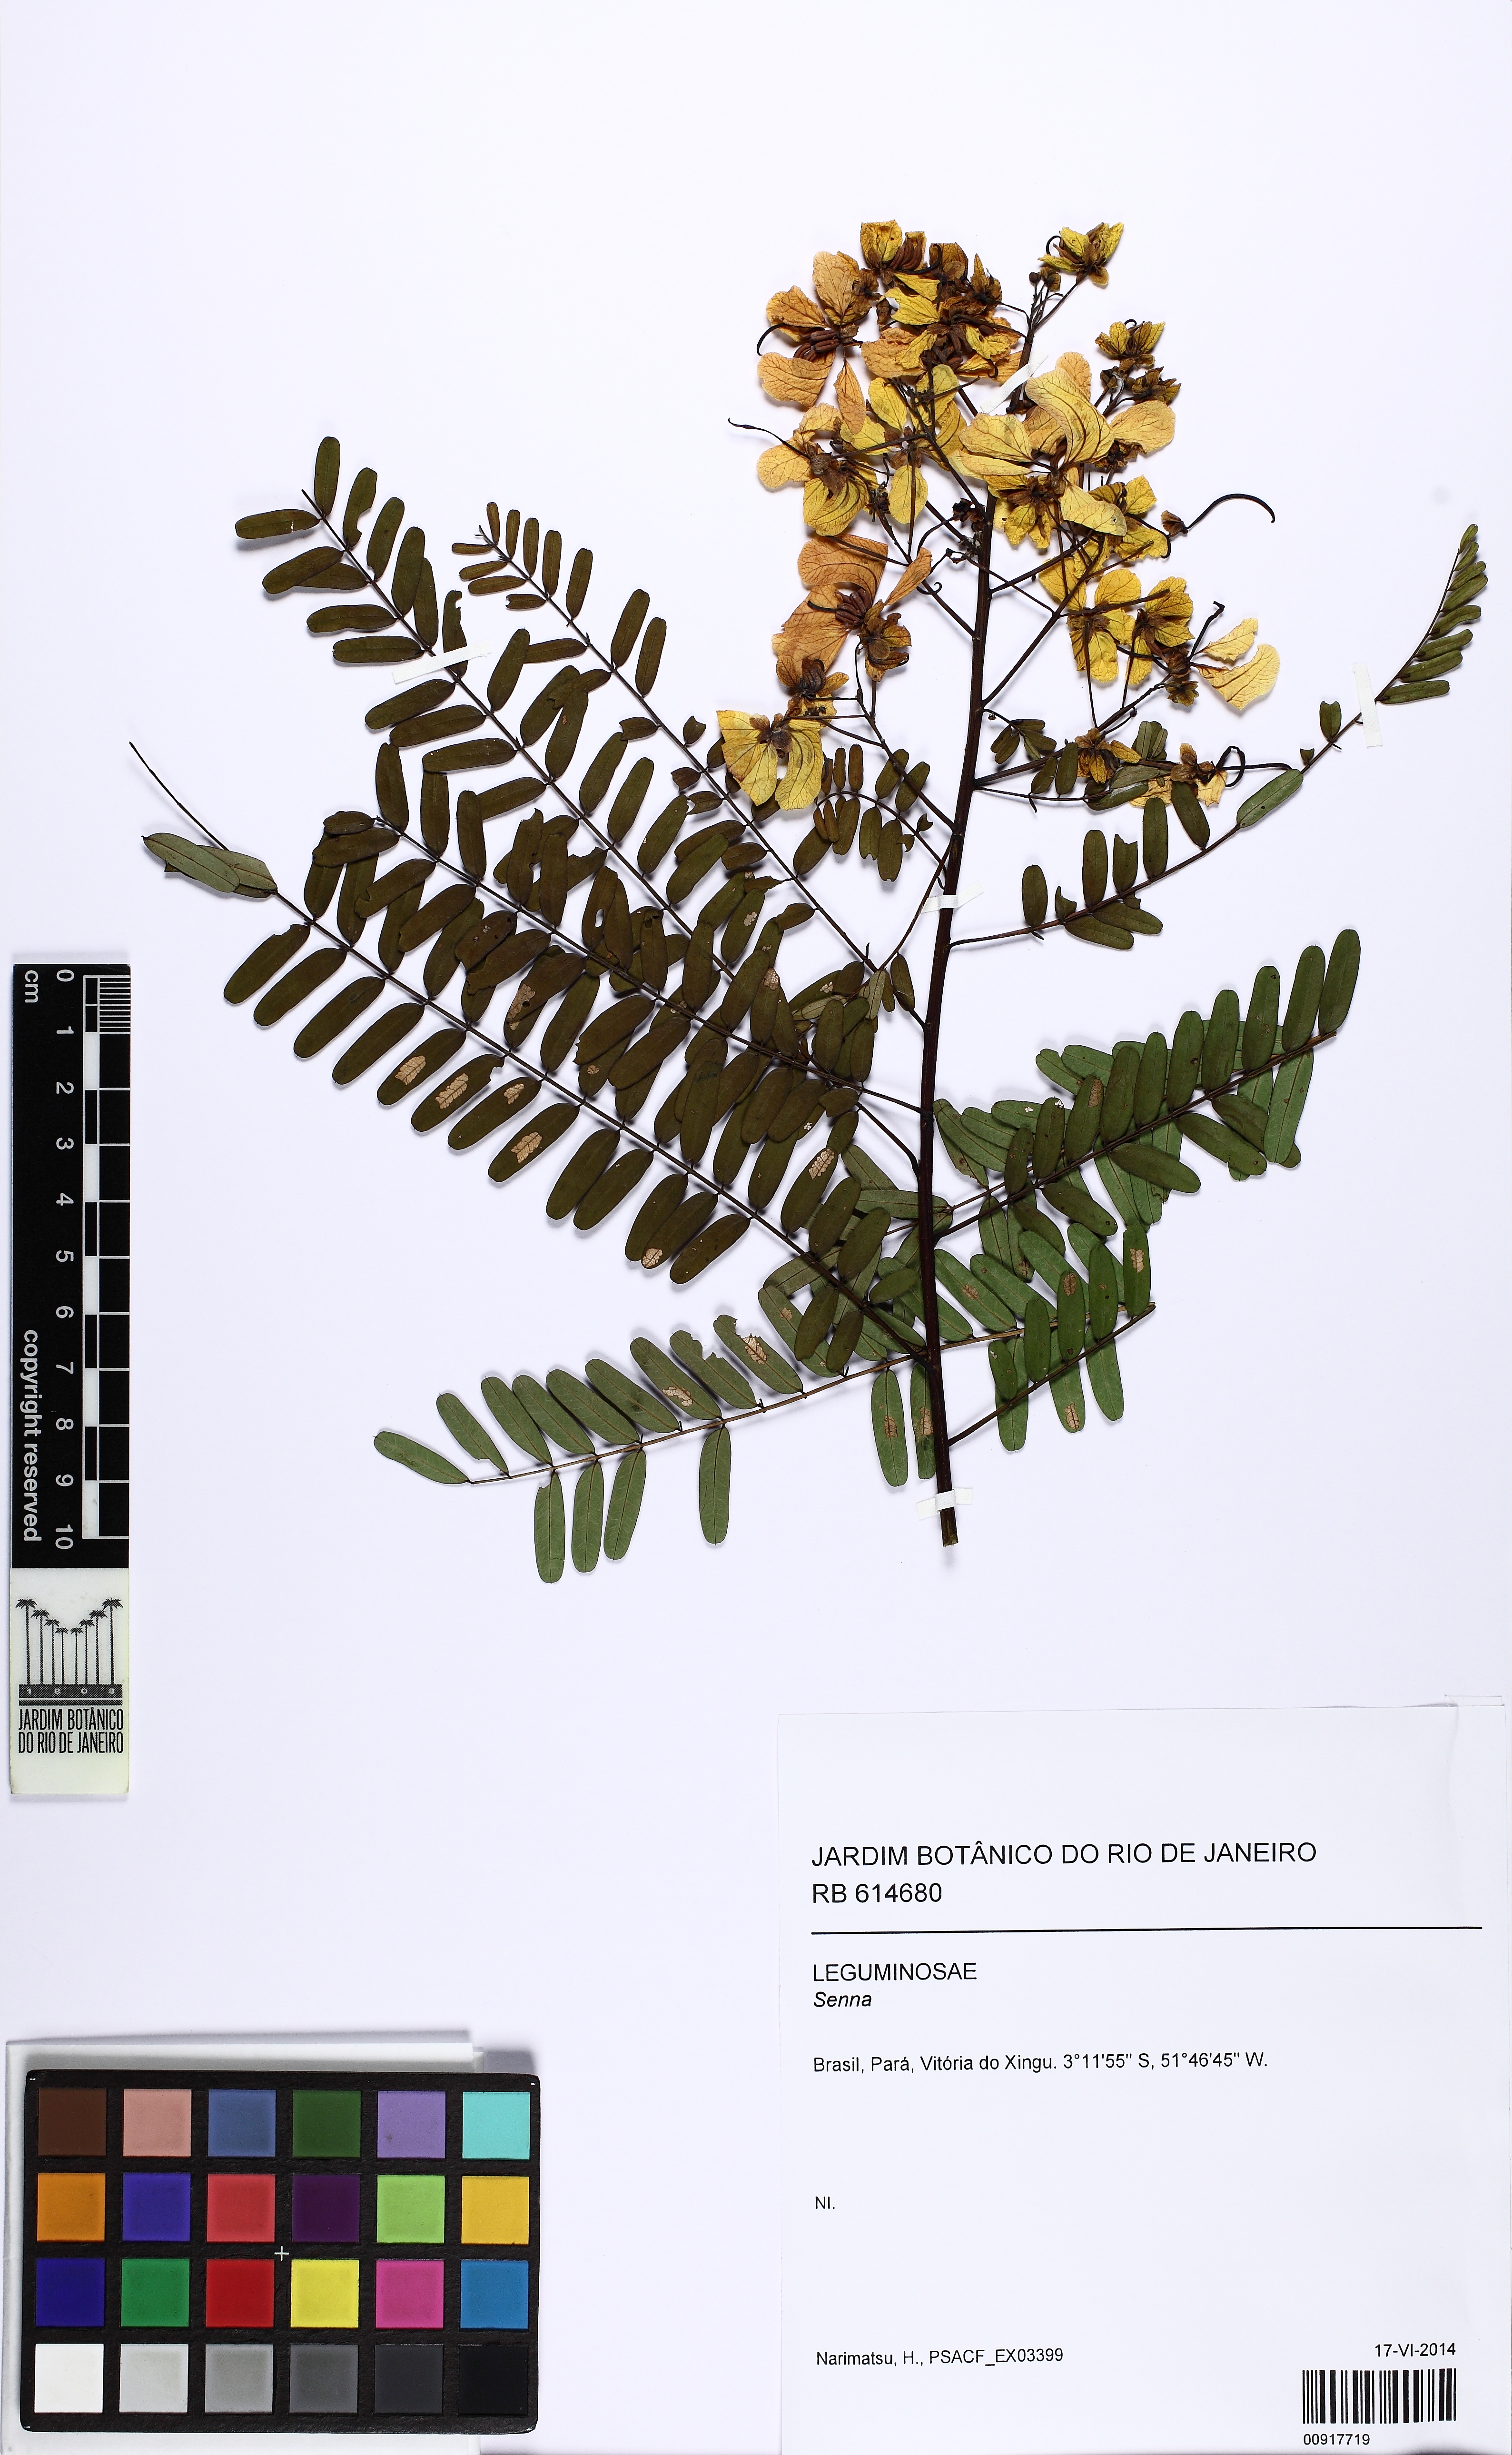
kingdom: Plantae
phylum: Tracheophyta
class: Magnoliopsida
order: Fabales
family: Fabaceae
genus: Senna
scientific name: Senna multijuga
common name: False sicklepod
